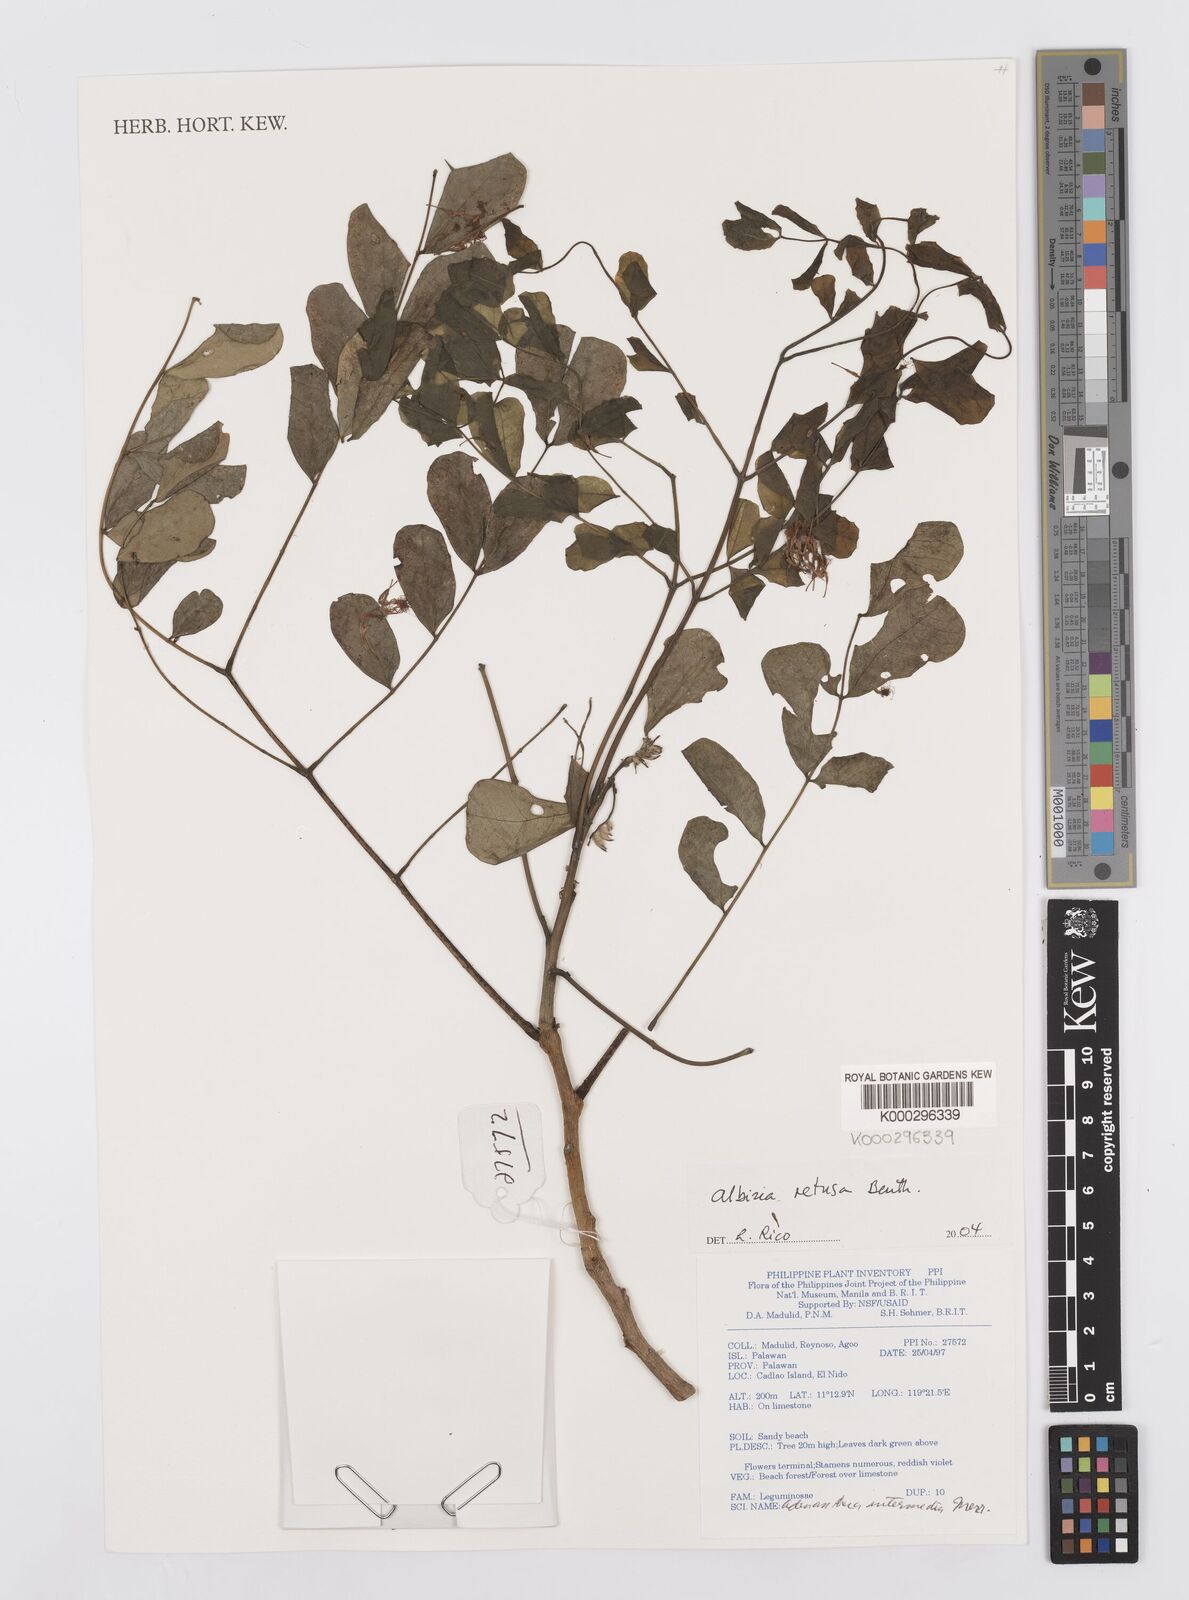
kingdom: Plantae
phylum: Tracheophyta
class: Magnoliopsida
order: Fabales
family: Fabaceae
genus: Albizia
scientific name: Albizia retusa
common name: Sea albizia
